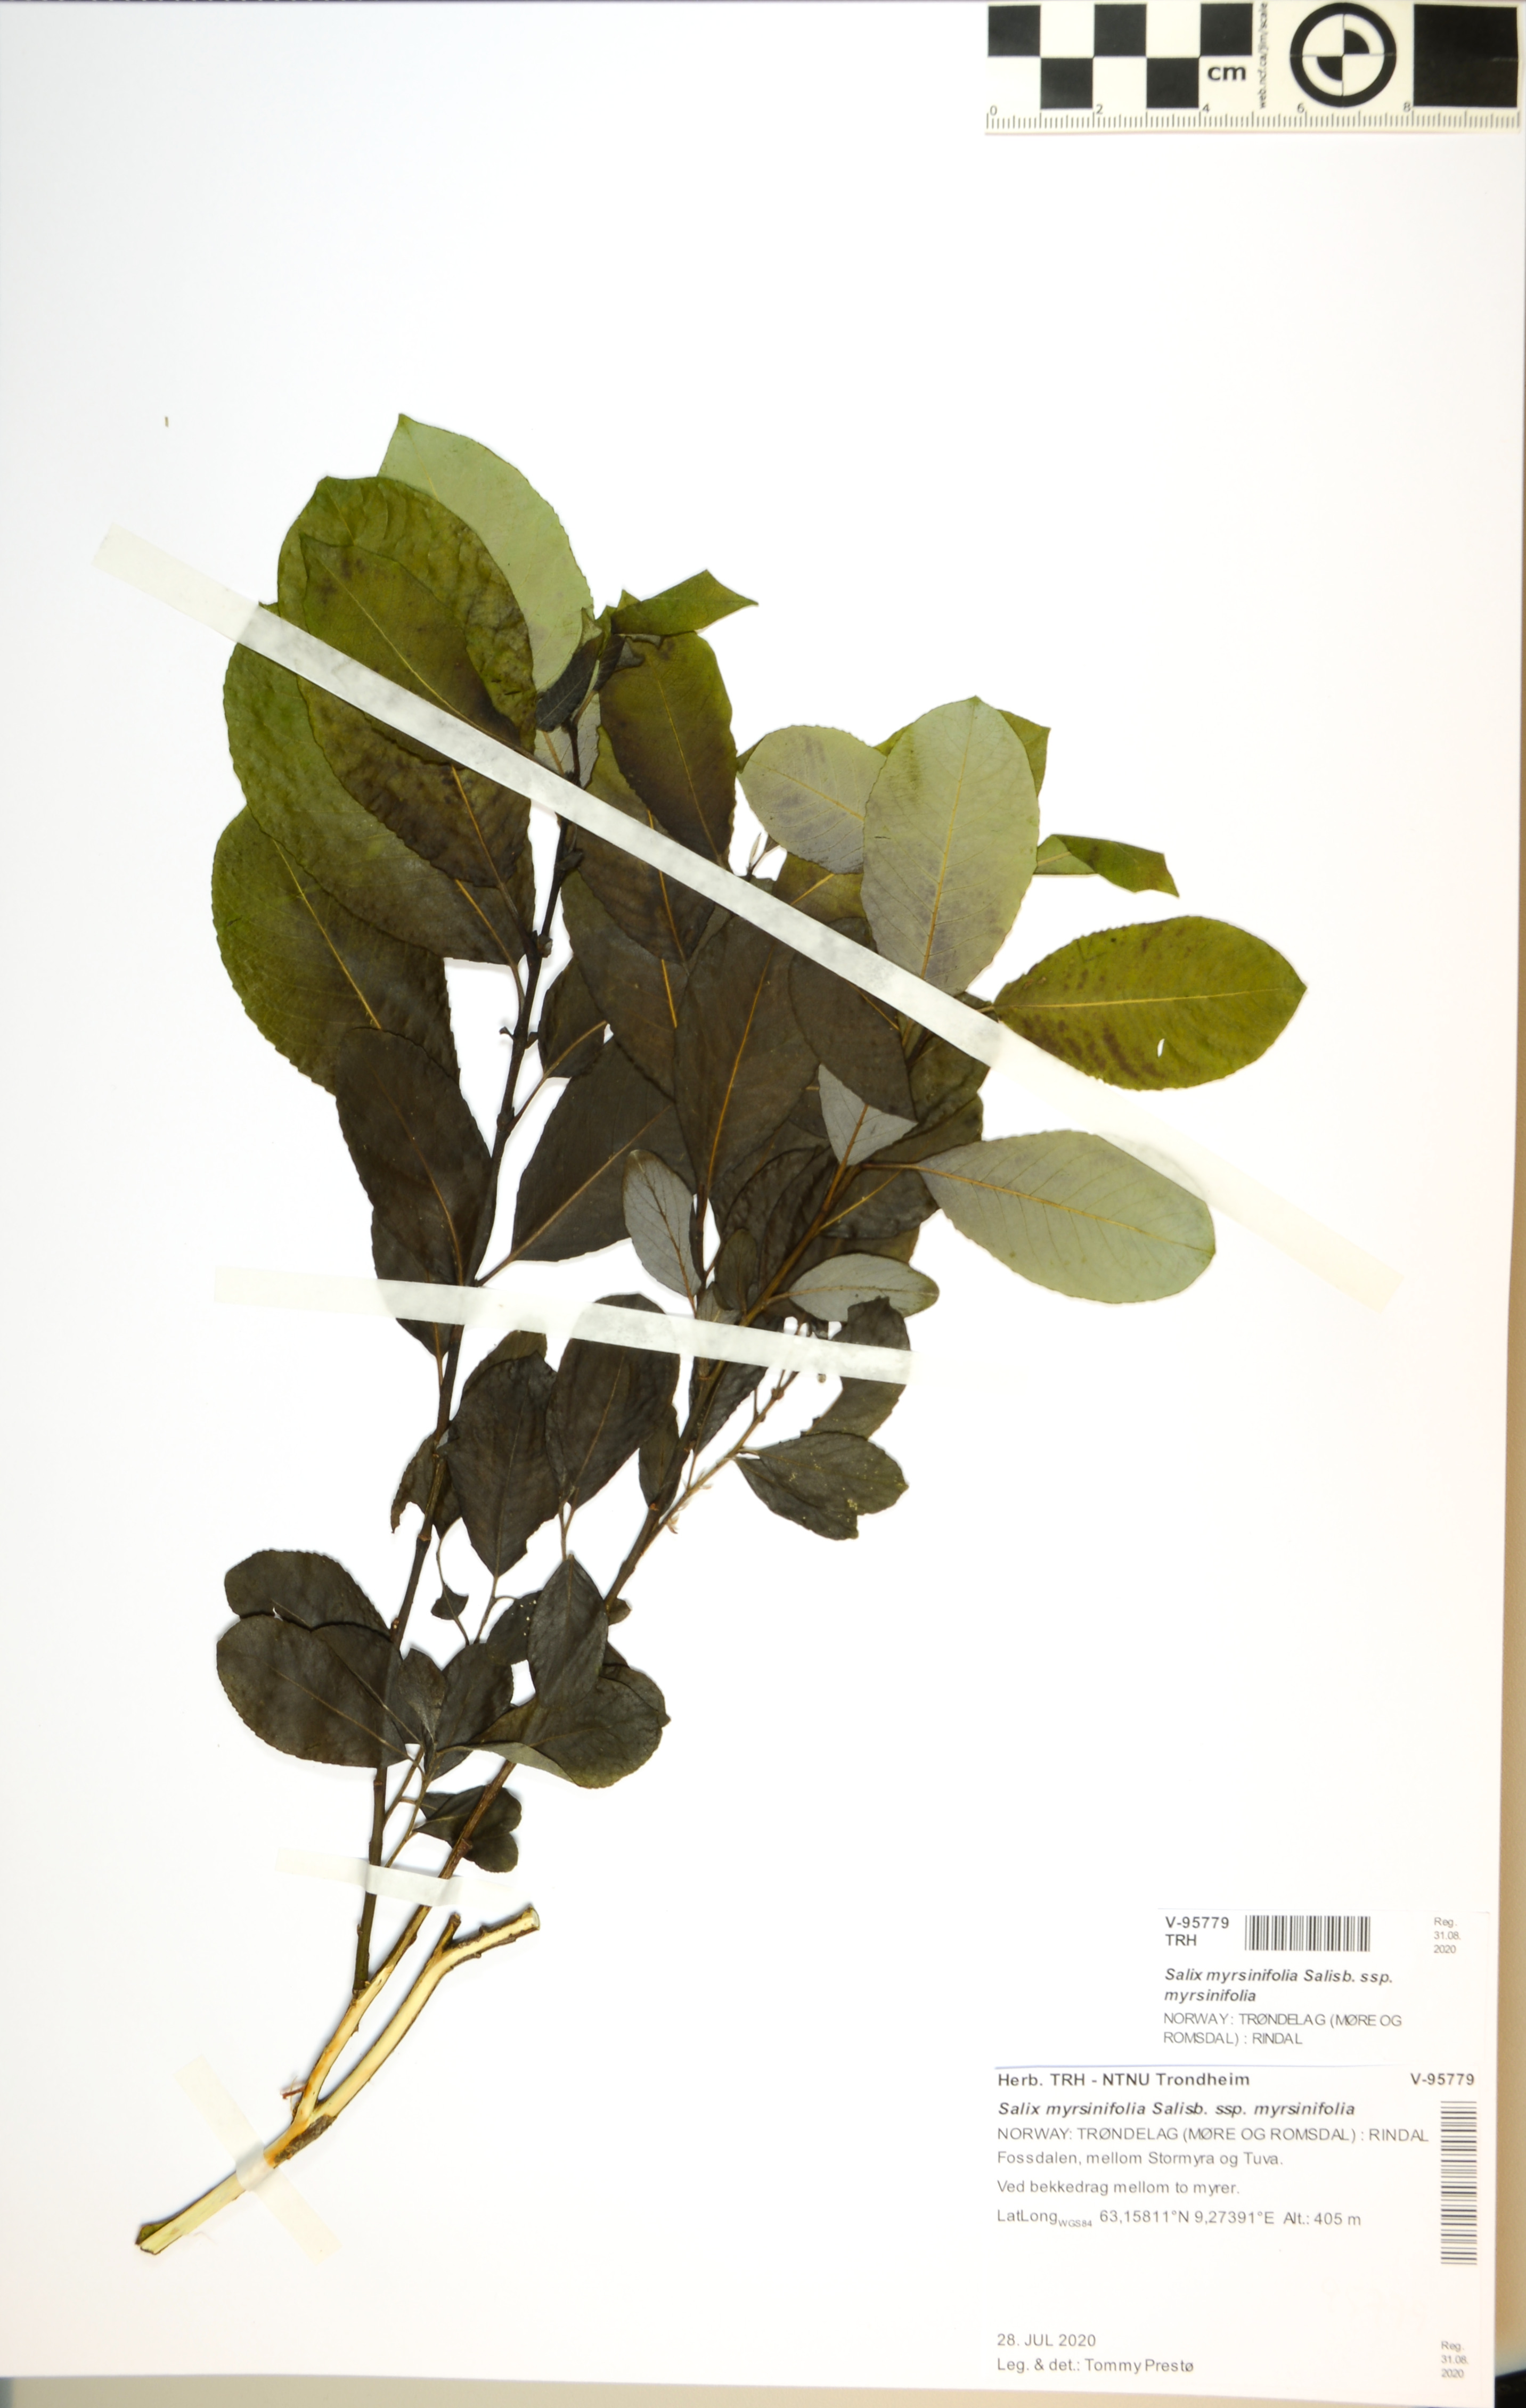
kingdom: Plantae
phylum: Tracheophyta
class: Magnoliopsida
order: Malpighiales
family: Salicaceae
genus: Salix
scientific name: Salix myrsinifolia
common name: Dark-leaved willow
